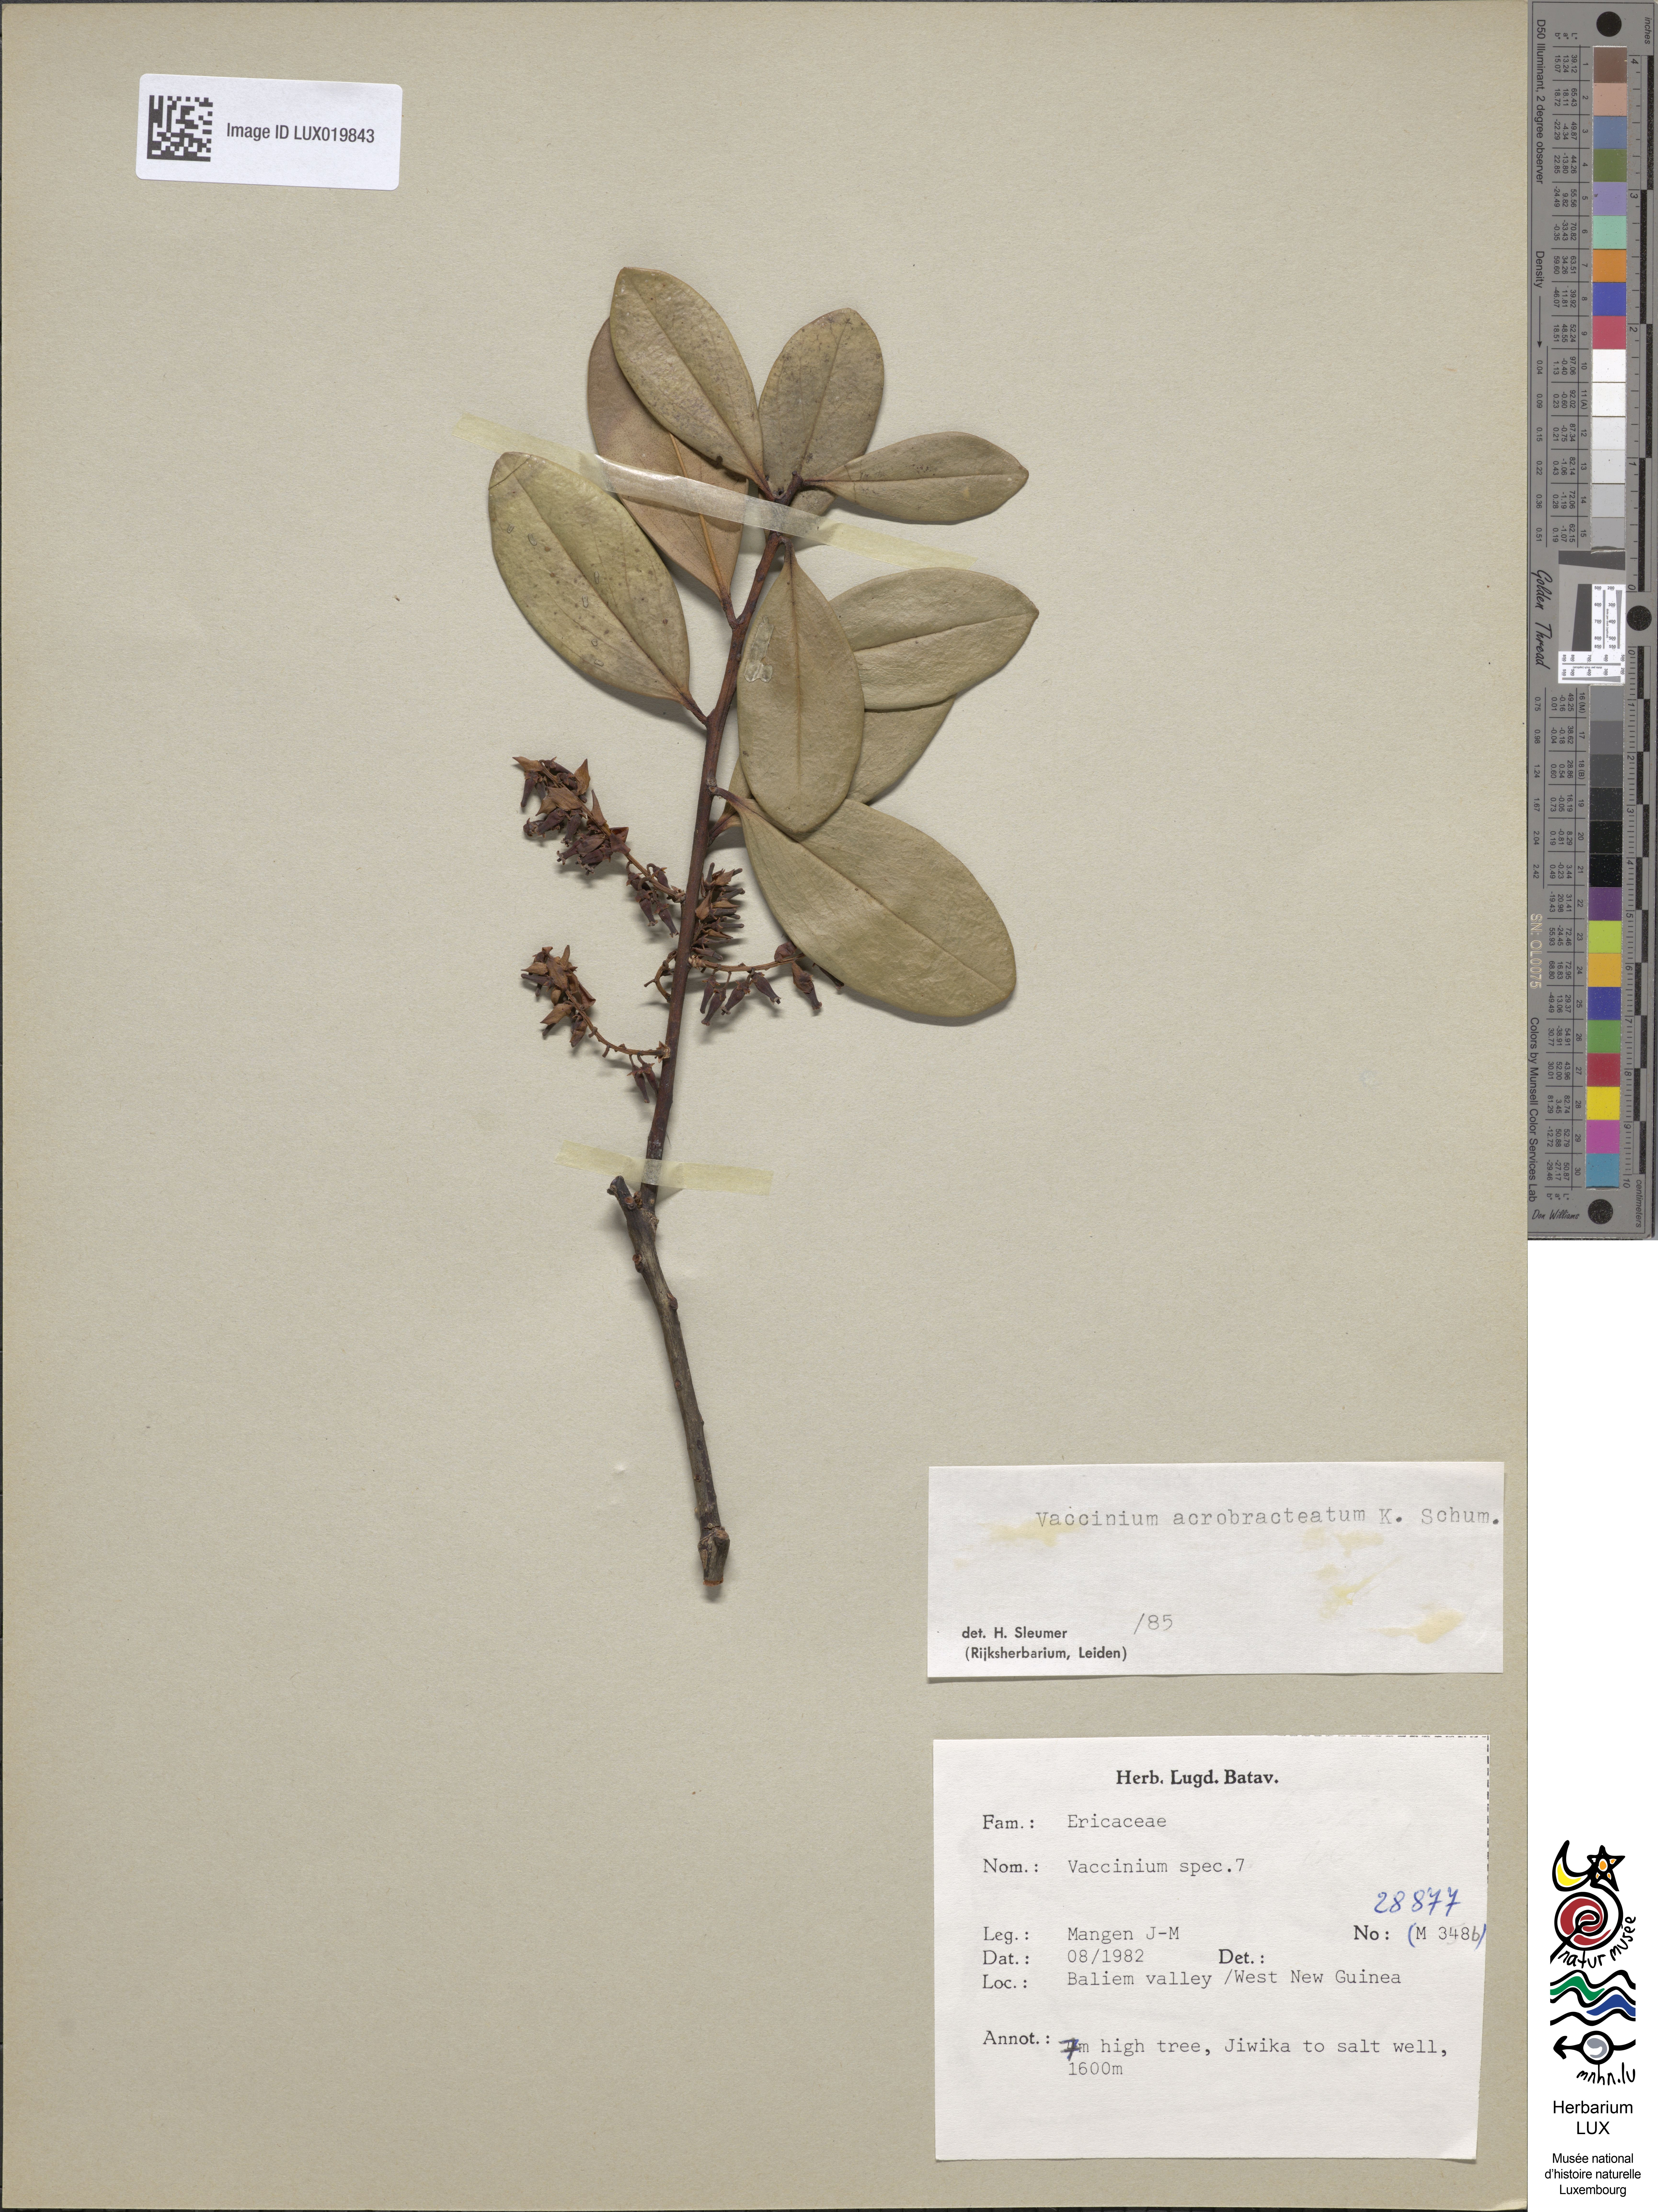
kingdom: Plantae
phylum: Tracheophyta
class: Magnoliopsida
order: Ericales
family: Ericaceae
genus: Vaccinium
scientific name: Vaccinium
